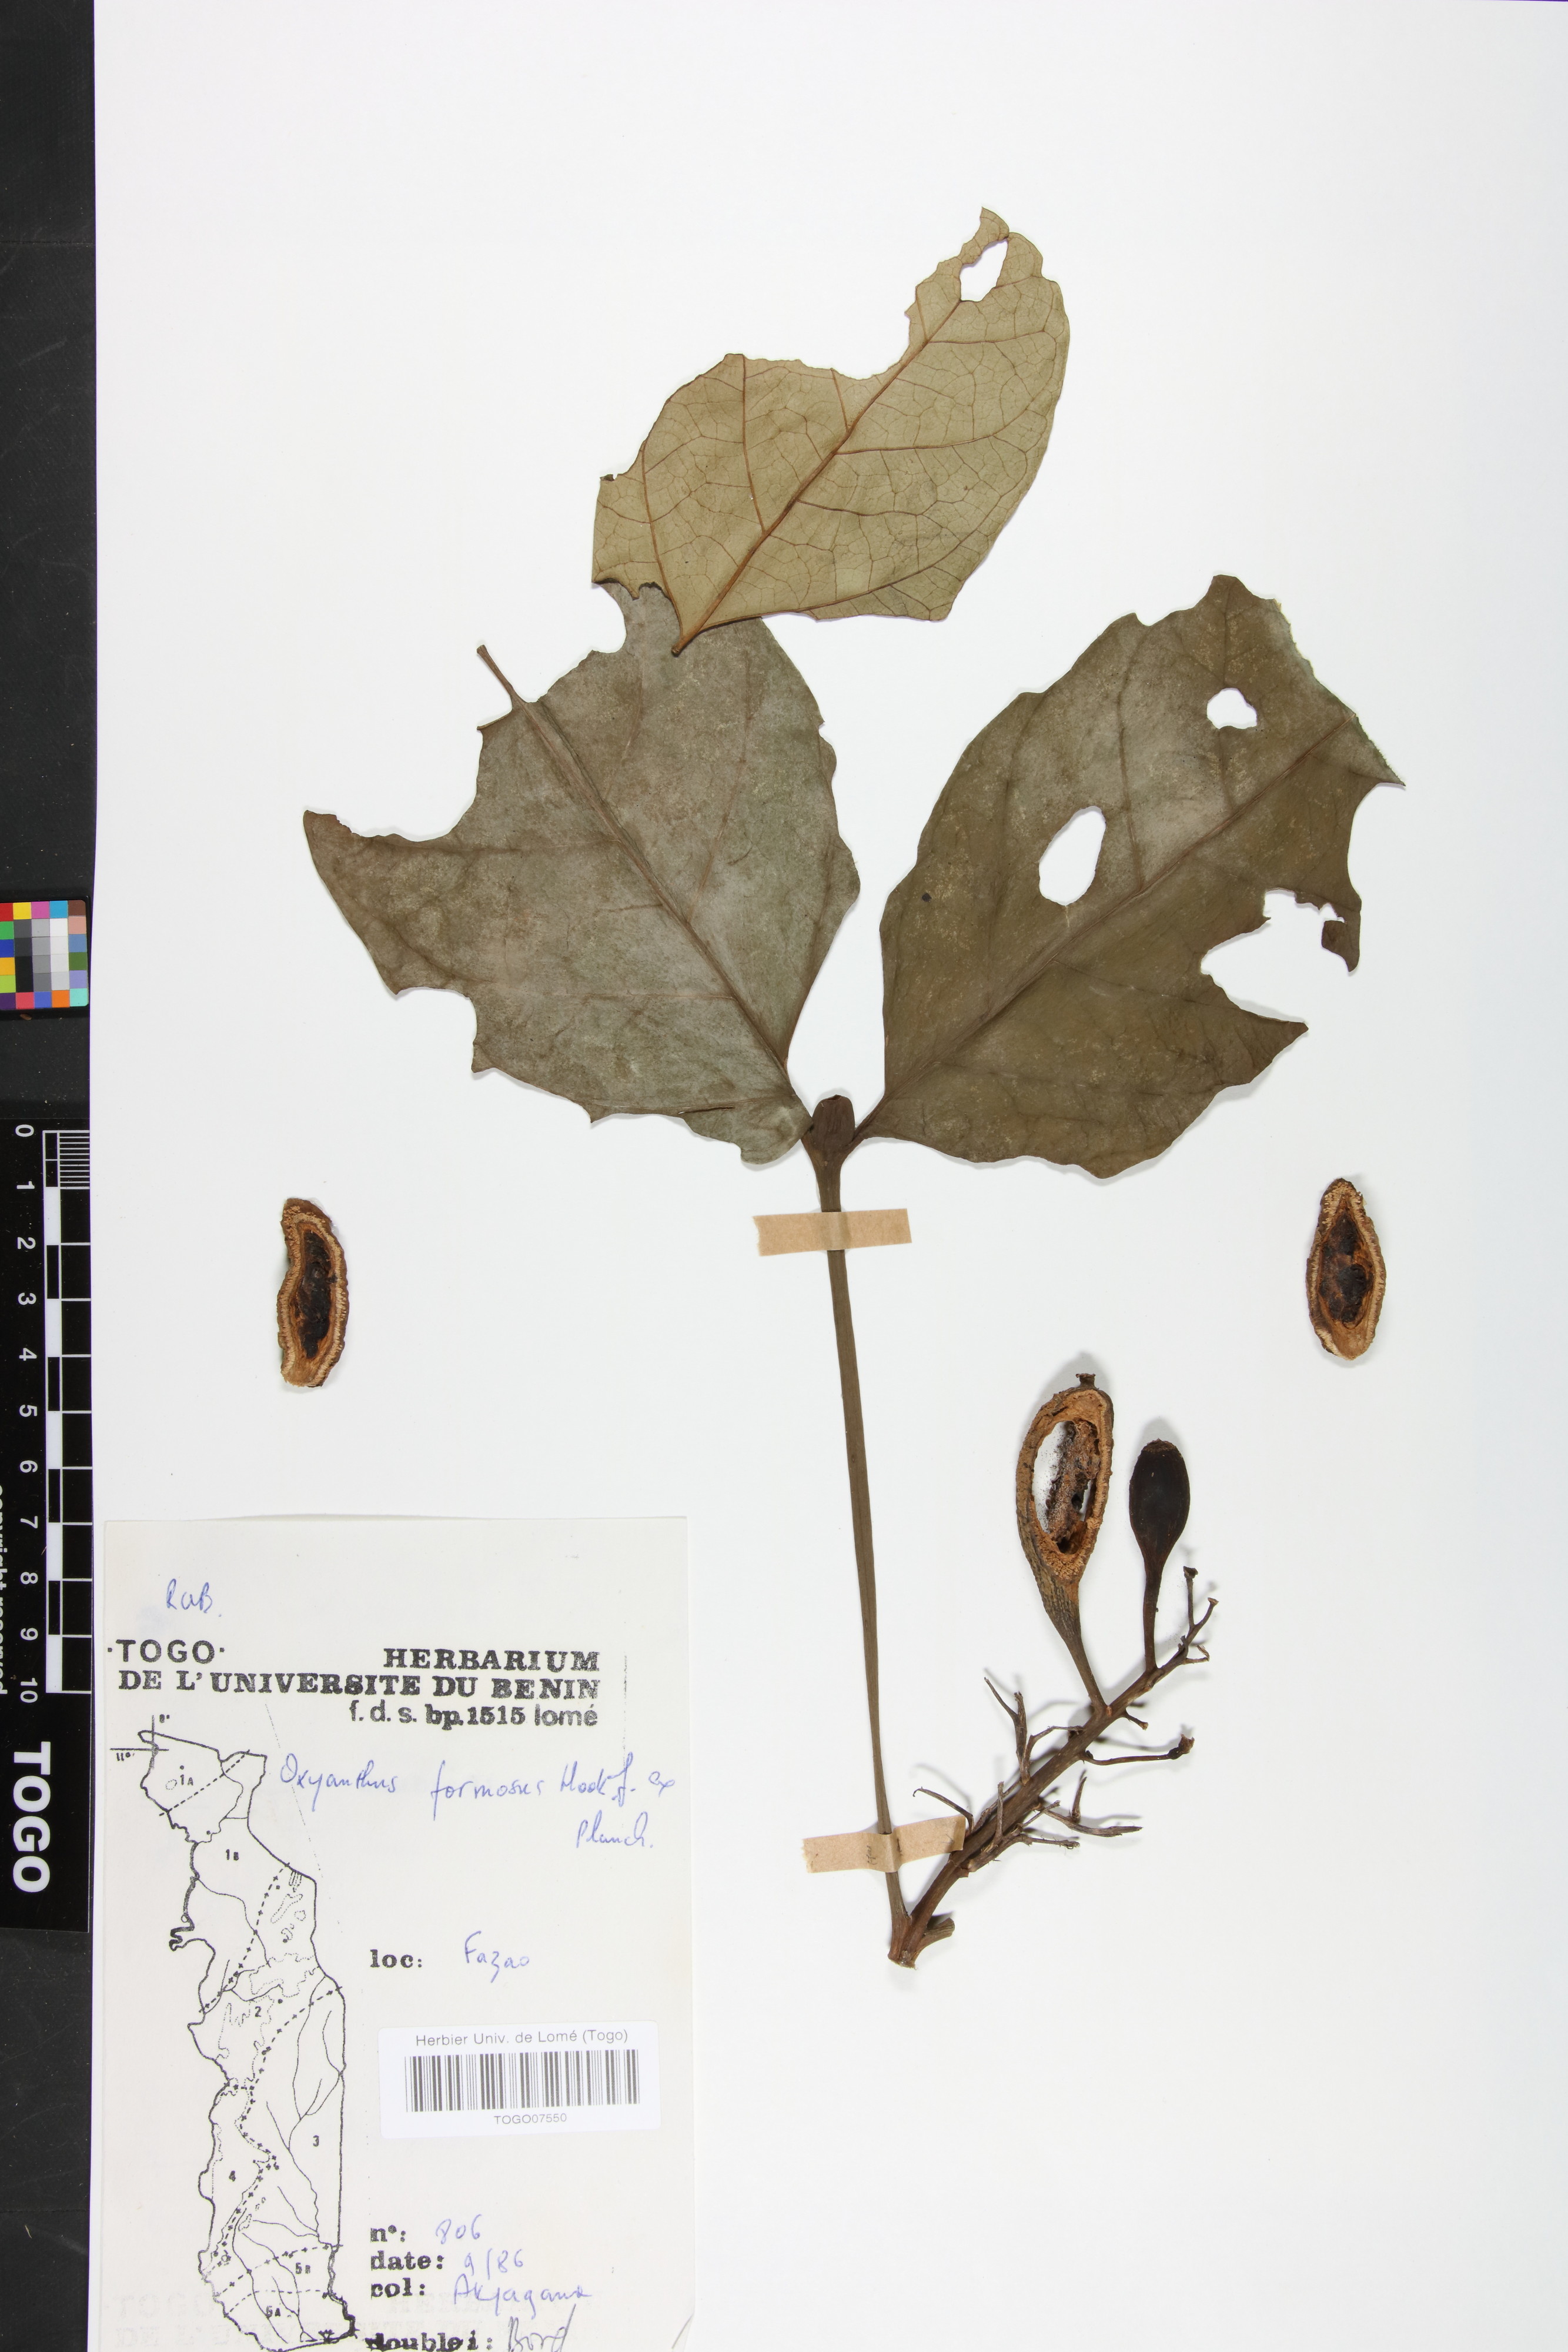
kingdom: Plantae
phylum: Tracheophyta
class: Magnoliopsida
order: Gentianales
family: Rubiaceae
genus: Oxyanthus
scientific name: Oxyanthus formosus
